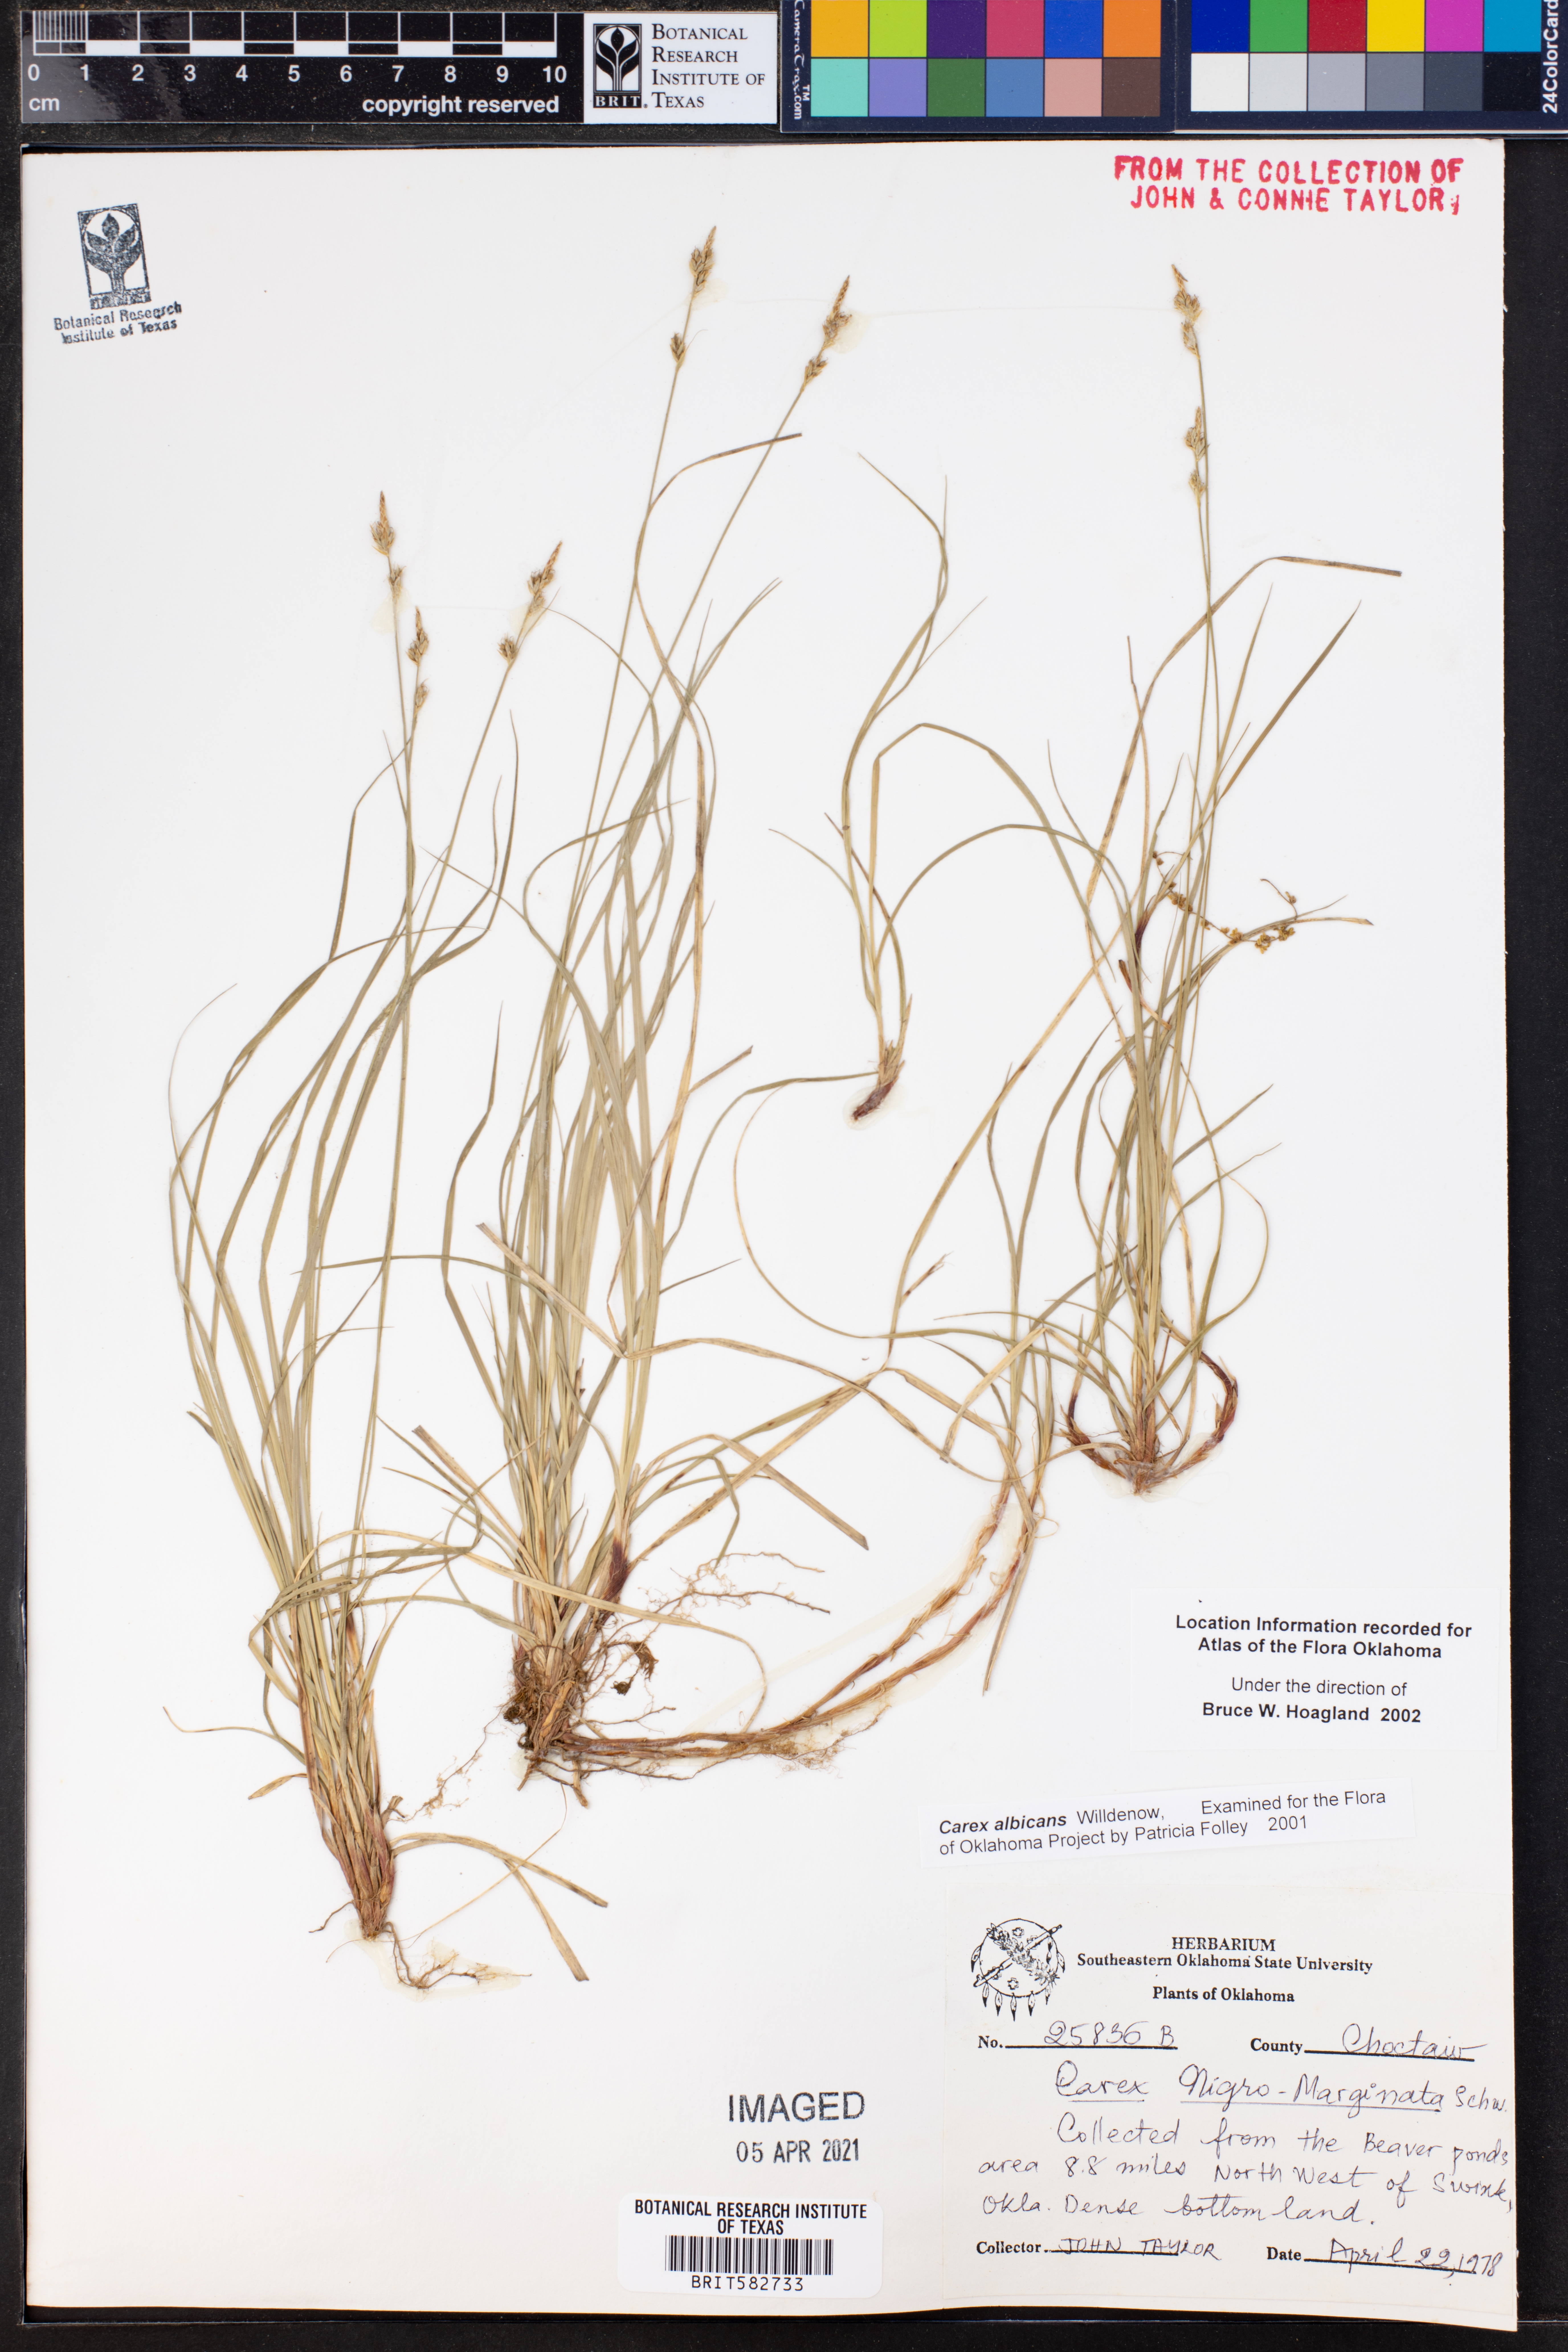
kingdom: Plantae
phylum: Tracheophyta
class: Liliopsida
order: Poales
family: Cyperaceae
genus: Carex
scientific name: Carex albicans
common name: Bellow-beaked sedge
